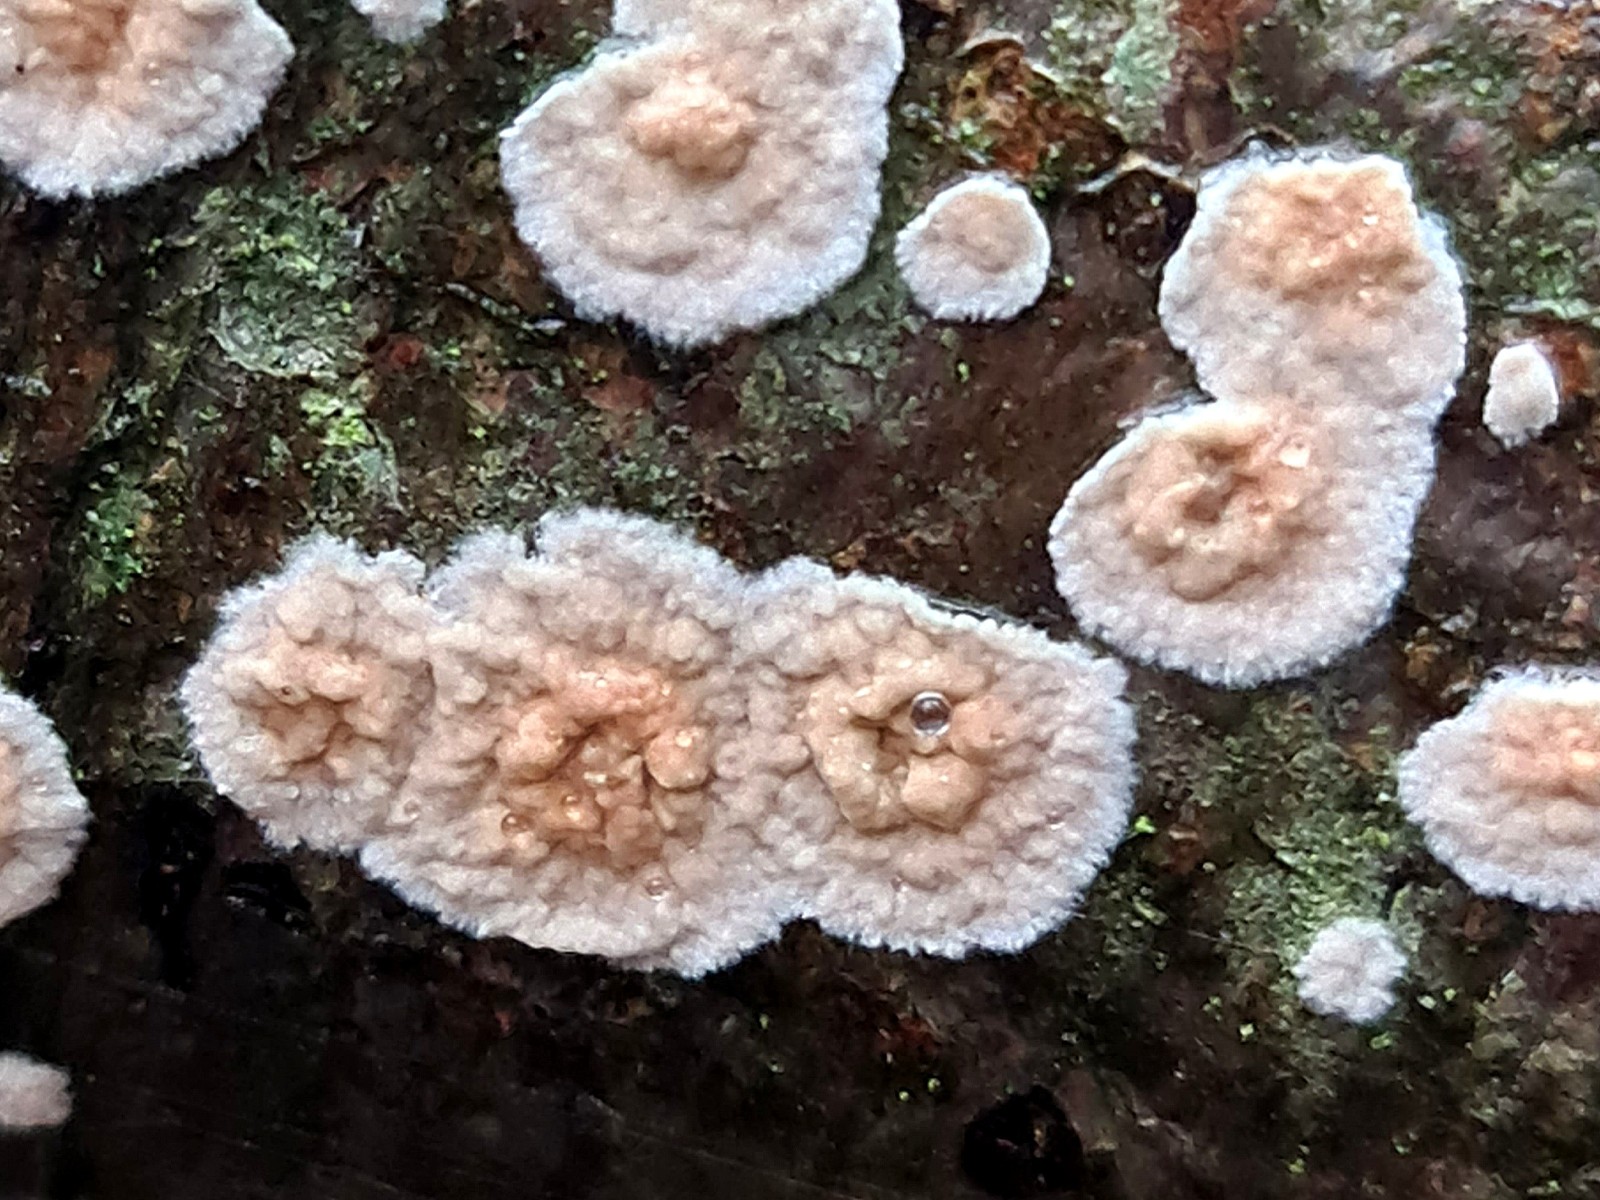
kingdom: Fungi
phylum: Basidiomycota
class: Agaricomycetes
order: Agaricales
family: Physalacriaceae
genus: Cylindrobasidium
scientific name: Cylindrobasidium evolvens
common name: sprækkehinde
